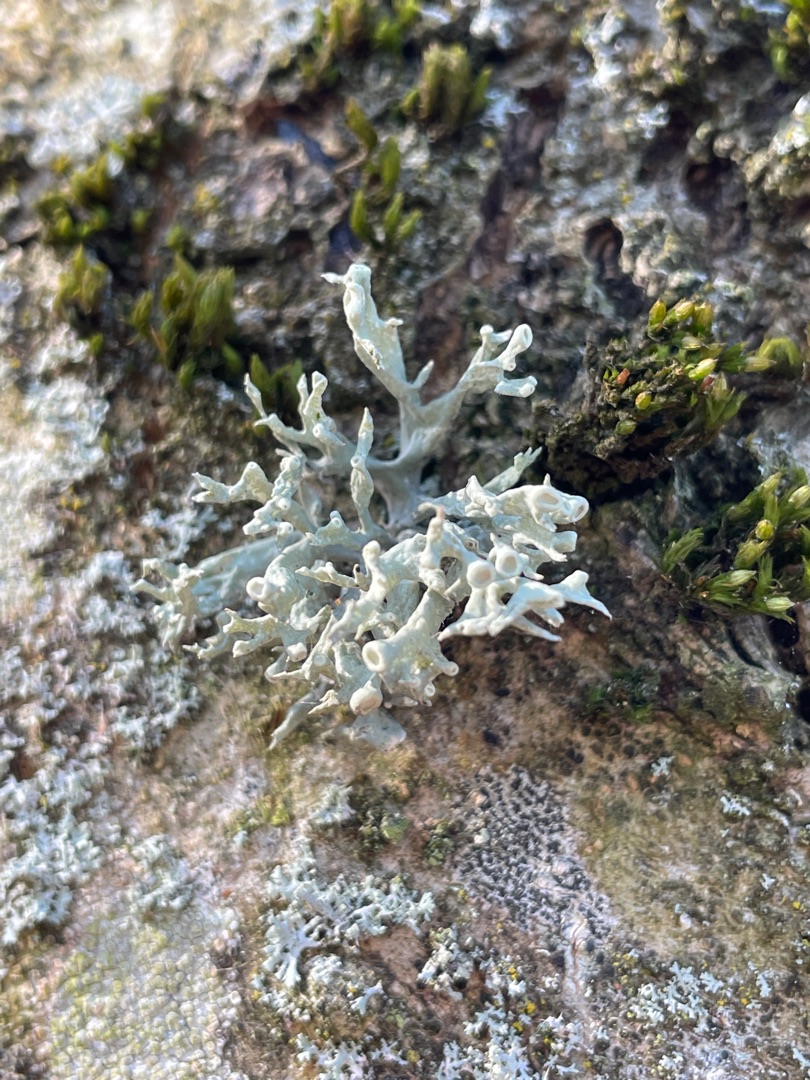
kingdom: Fungi
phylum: Ascomycota
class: Lecanoromycetes
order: Lecanorales
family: Ramalinaceae
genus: Ramalina
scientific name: Ramalina fastigiata
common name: Tue-grenlav
